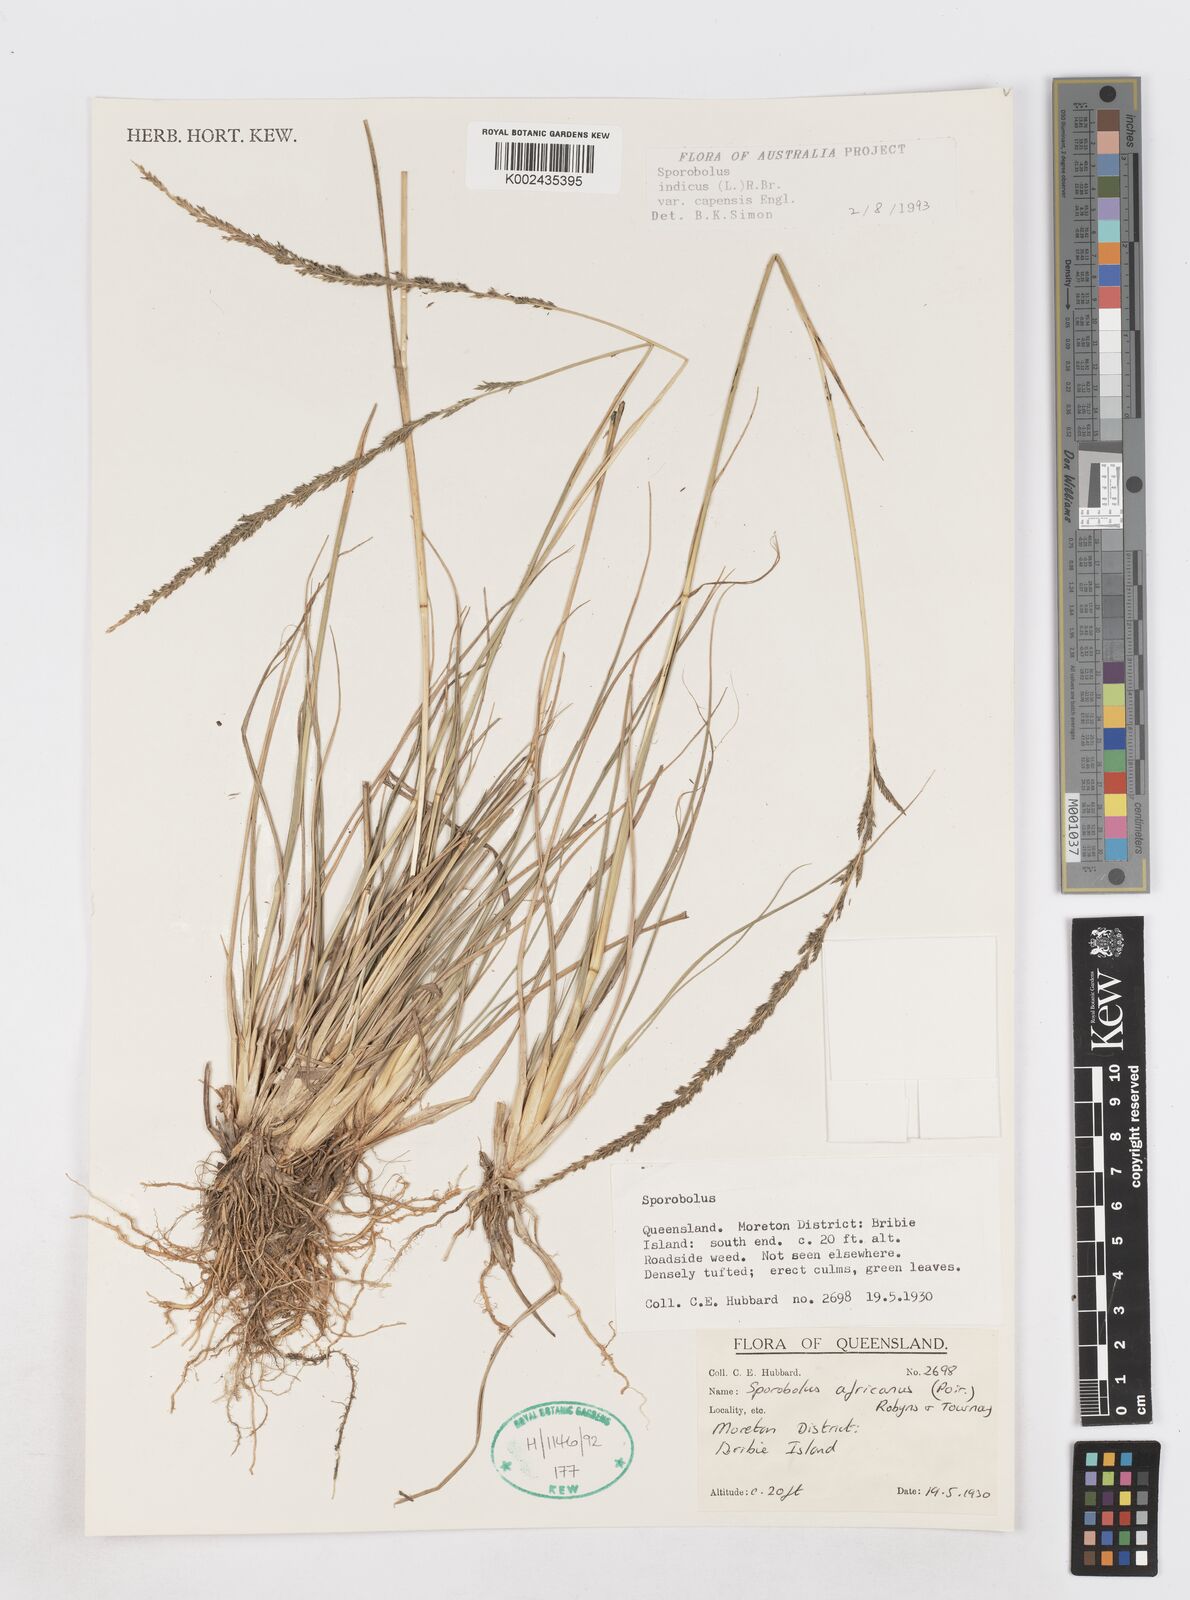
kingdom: Plantae
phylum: Tracheophyta
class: Liliopsida
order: Poales
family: Poaceae
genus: Sporobolus
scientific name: Sporobolus africanus
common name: African dropseed
